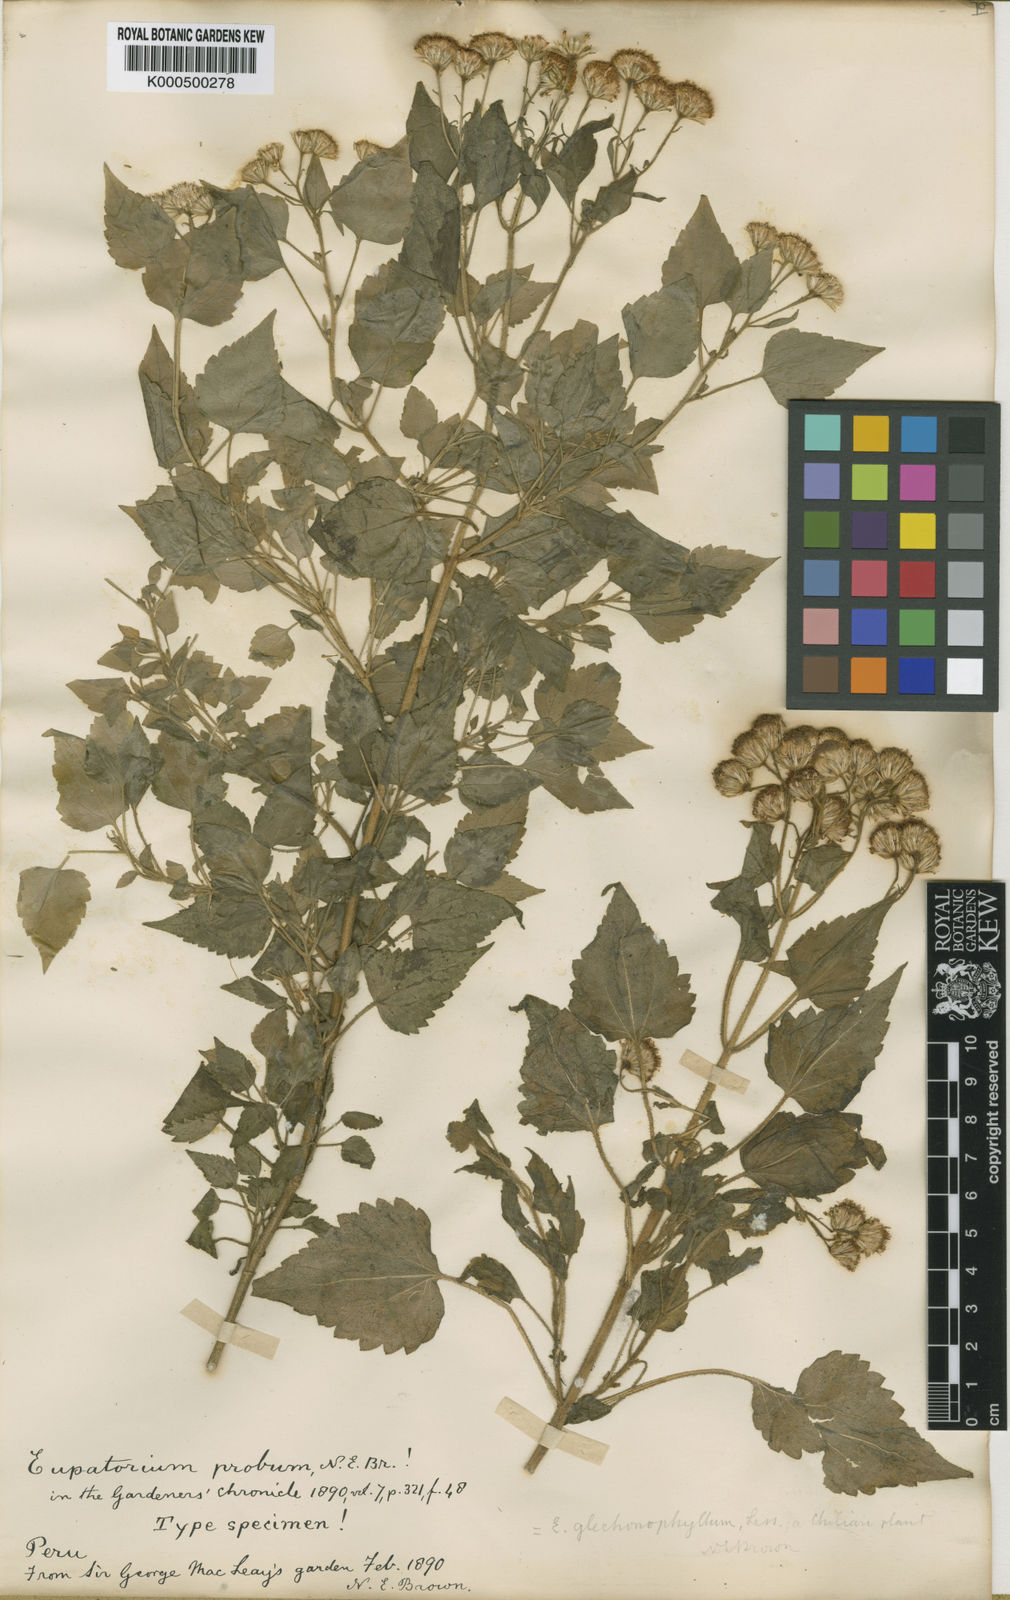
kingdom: Plantae
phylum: Tracheophyta
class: Magnoliopsida
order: Asterales
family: Asteraceae
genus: Ageratina
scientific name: Ageratina glechonophylla
